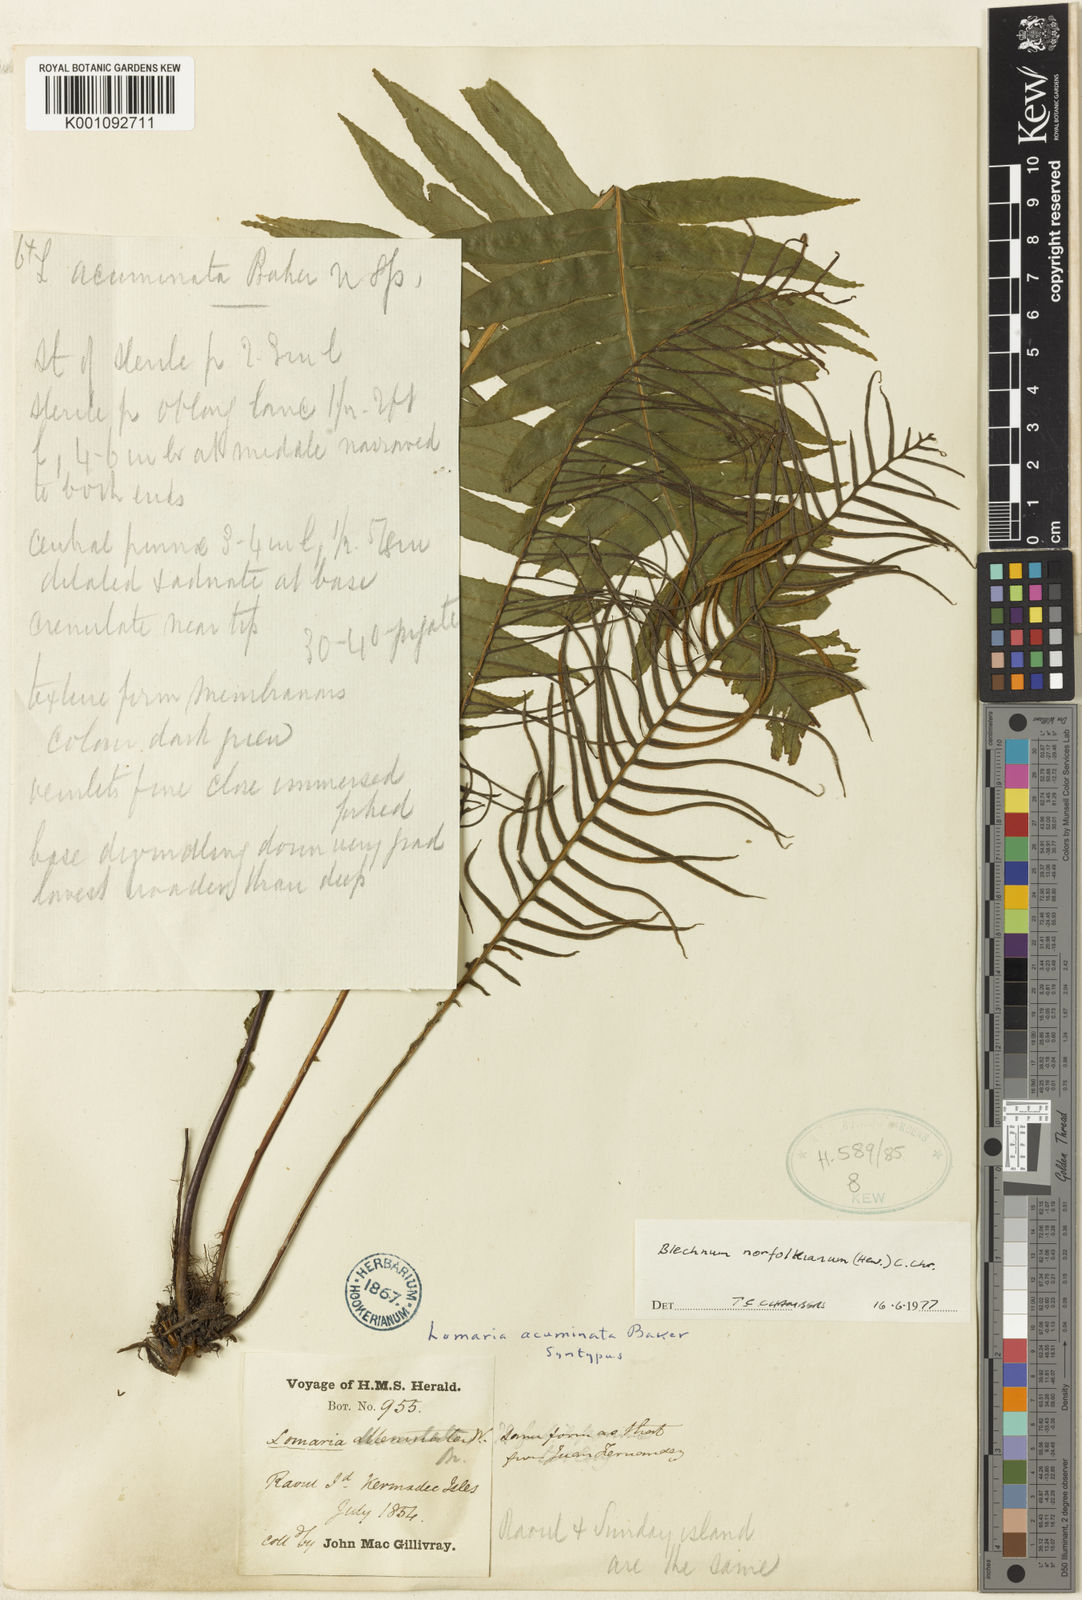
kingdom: Plantae
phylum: Tracheophyta
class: Polypodiopsida
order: Polypodiales
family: Blechnaceae
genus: Austroblechnum
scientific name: Austroblechnum norfolkianum
